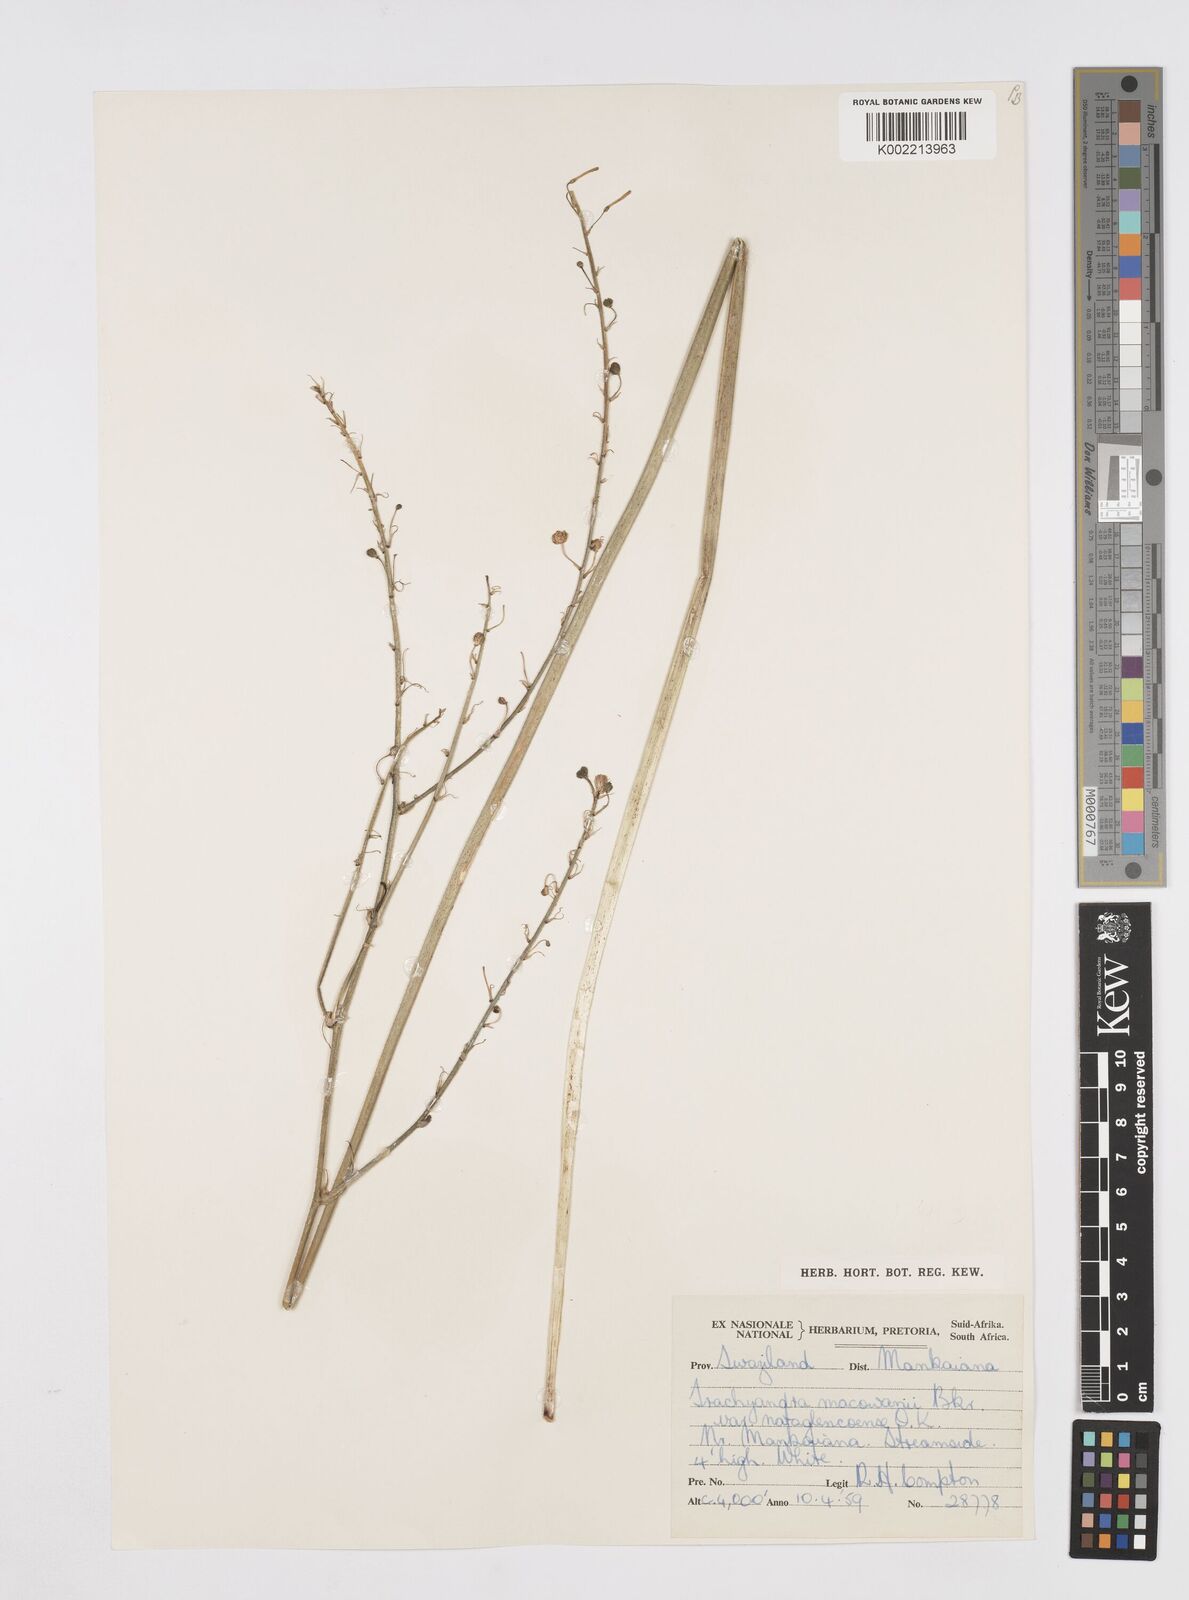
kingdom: Plantae
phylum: Tracheophyta
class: Liliopsida
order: Asparagales
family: Asphodelaceae
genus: Trachyandra
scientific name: Trachyandra asperata
